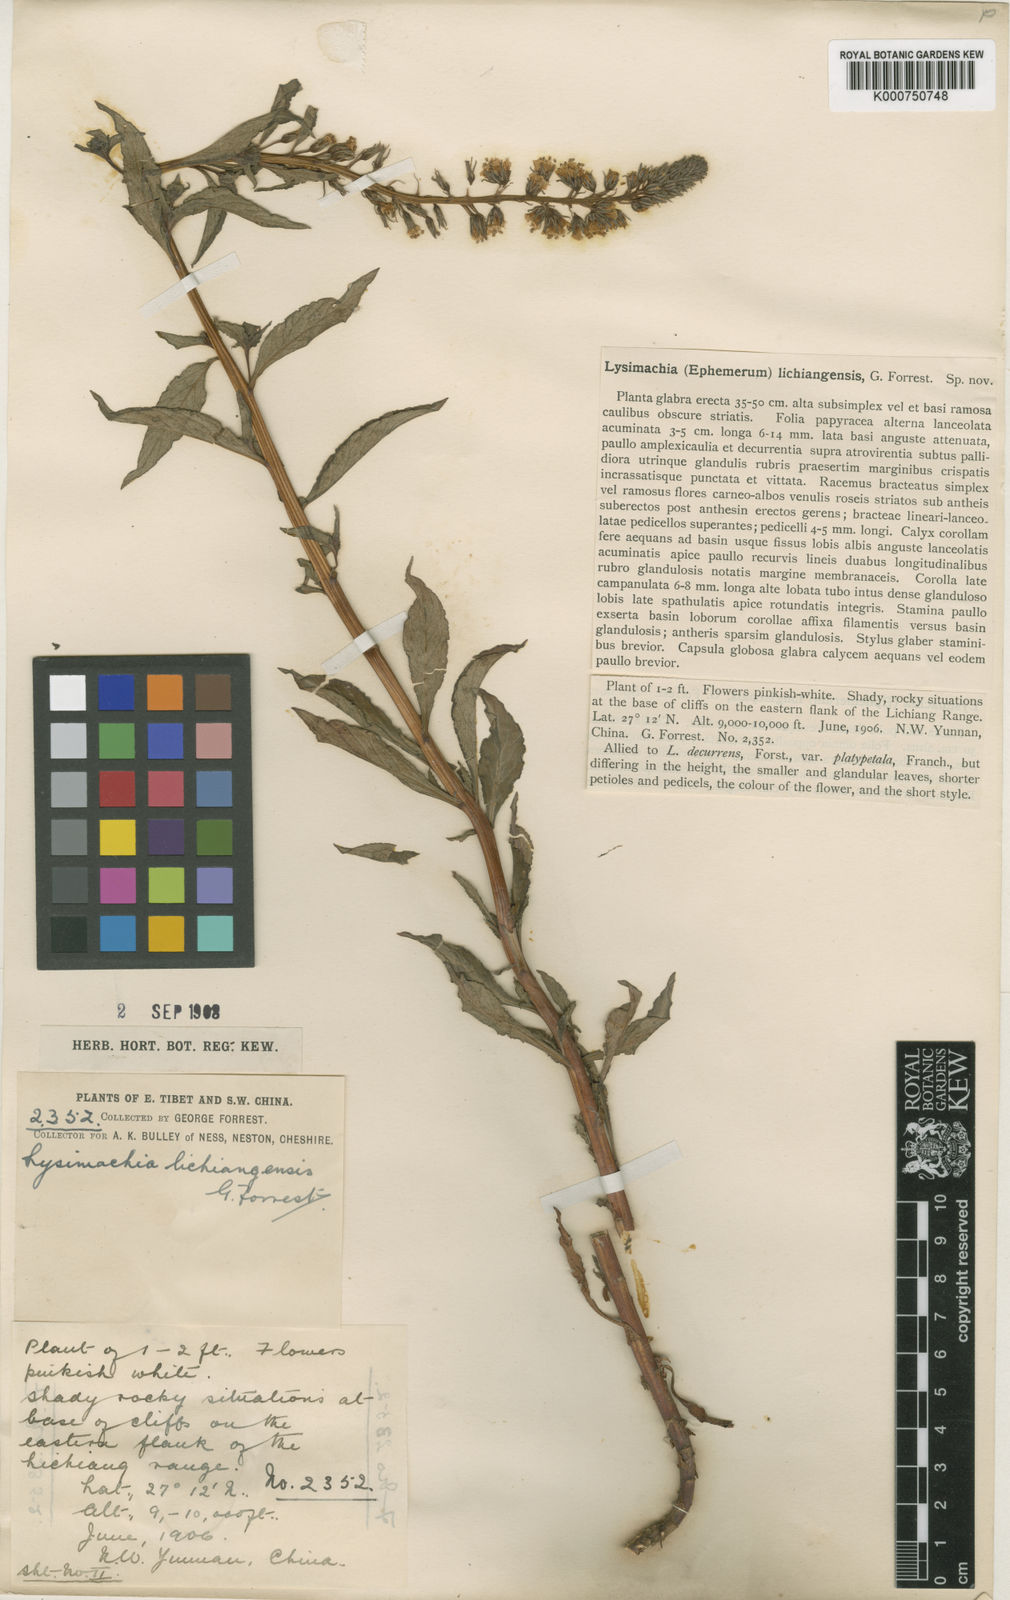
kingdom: Plantae
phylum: Tracheophyta
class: Magnoliopsida
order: Ericales
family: Primulaceae
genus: Lysimachia
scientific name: Lysimachia lichiangensis
